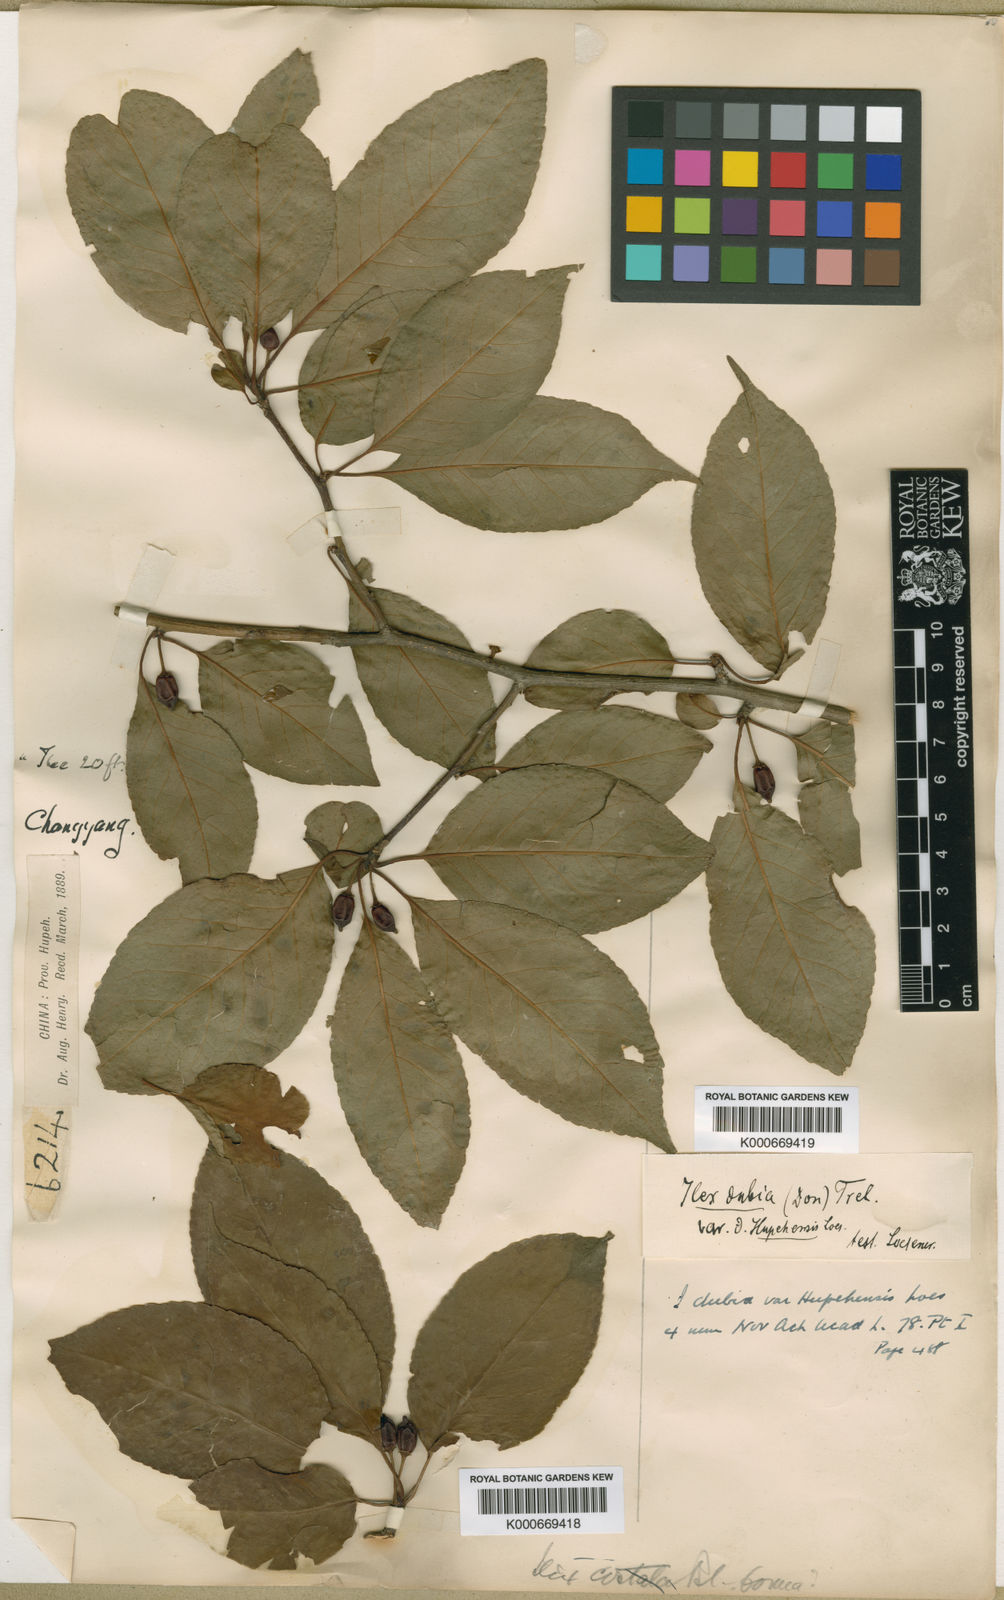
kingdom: Plantae
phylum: Tracheophyta
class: Magnoliopsida
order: Aquifoliales
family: Aquifoliaceae
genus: Ilex
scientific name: Ilex macrocarpa
